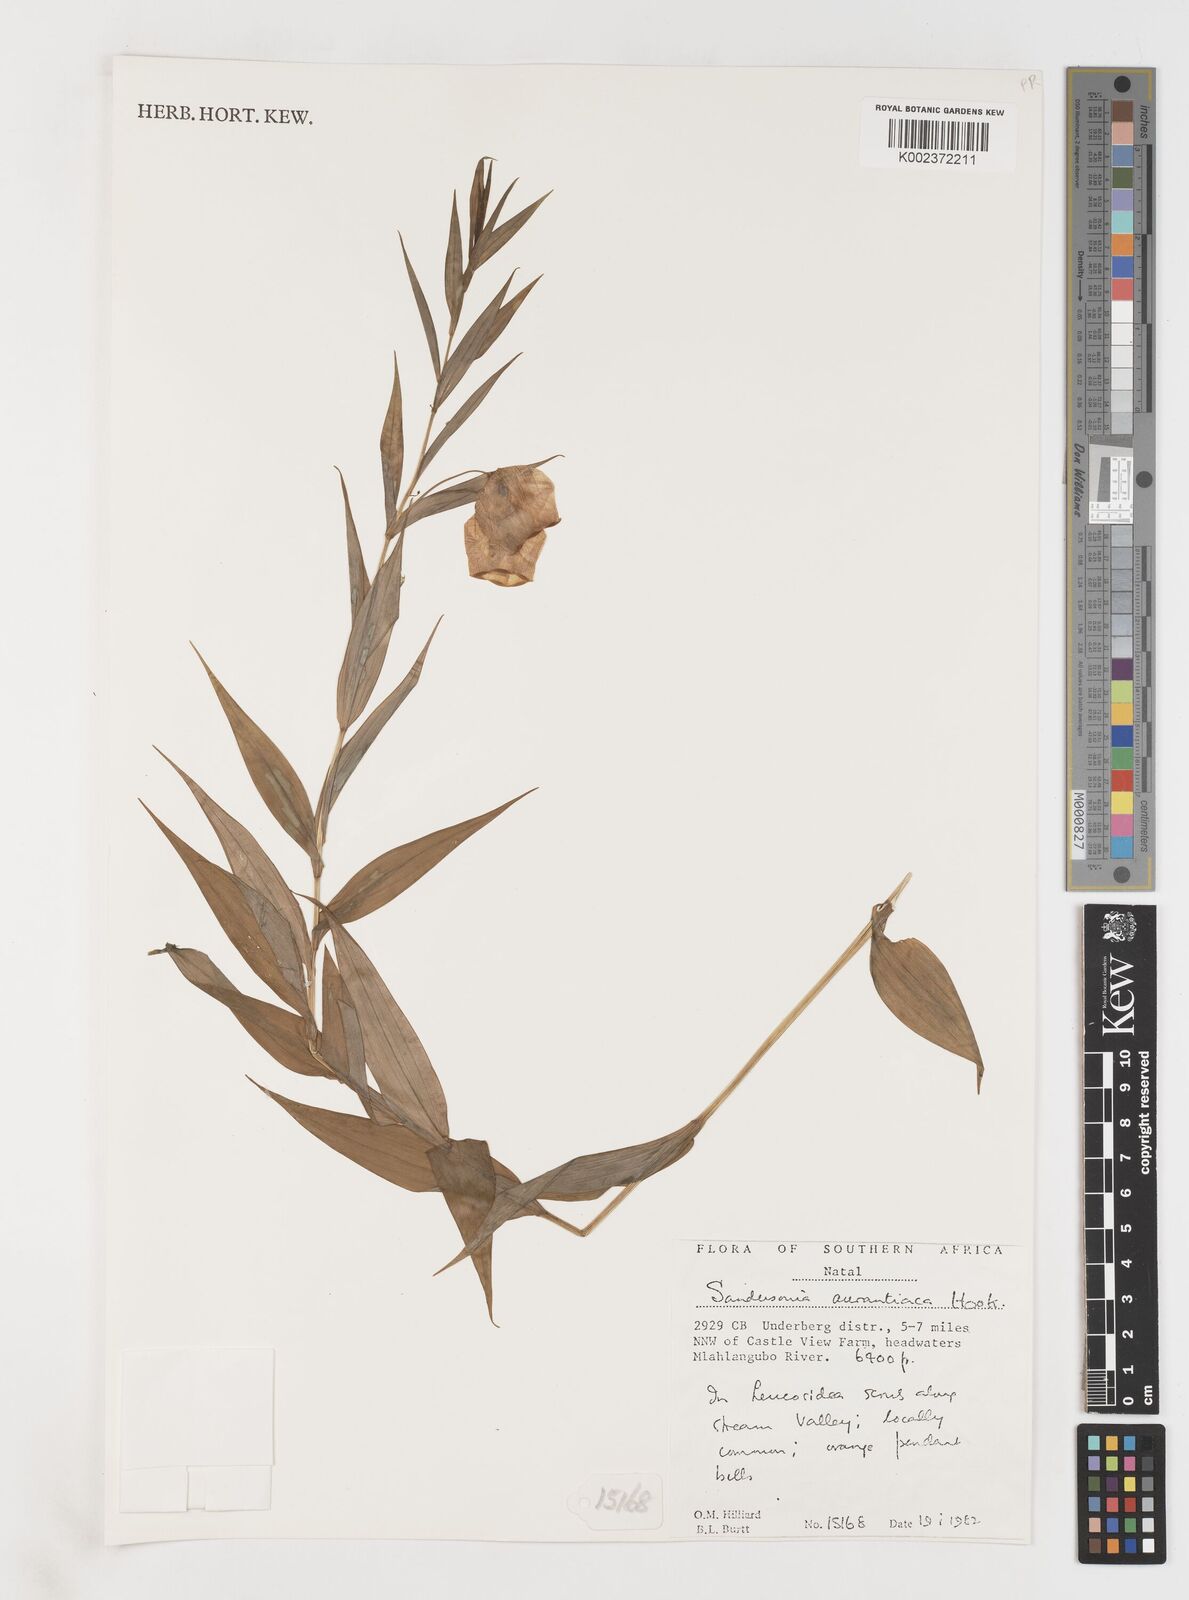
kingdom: Plantae
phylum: Tracheophyta
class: Liliopsida
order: Liliales
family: Colchicaceae
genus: Sandersonia
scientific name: Sandersonia aurantiaca
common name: Chinese-lantern-lily
